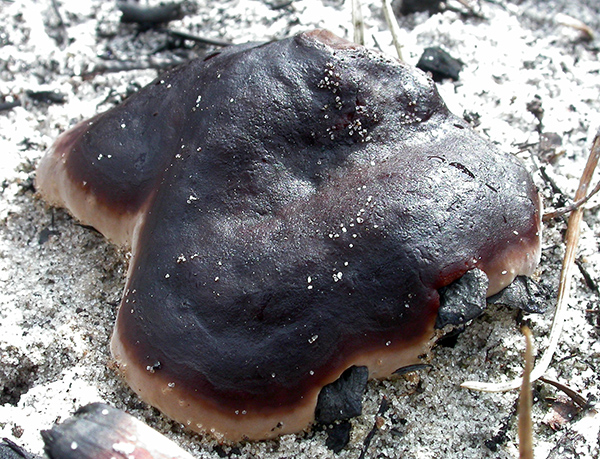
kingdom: Fungi
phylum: Ascomycota
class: Pezizomycetes
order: Pezizales
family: Rhizinaceae
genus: Rhizina
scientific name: Rhizina undulata
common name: rodmorkel
